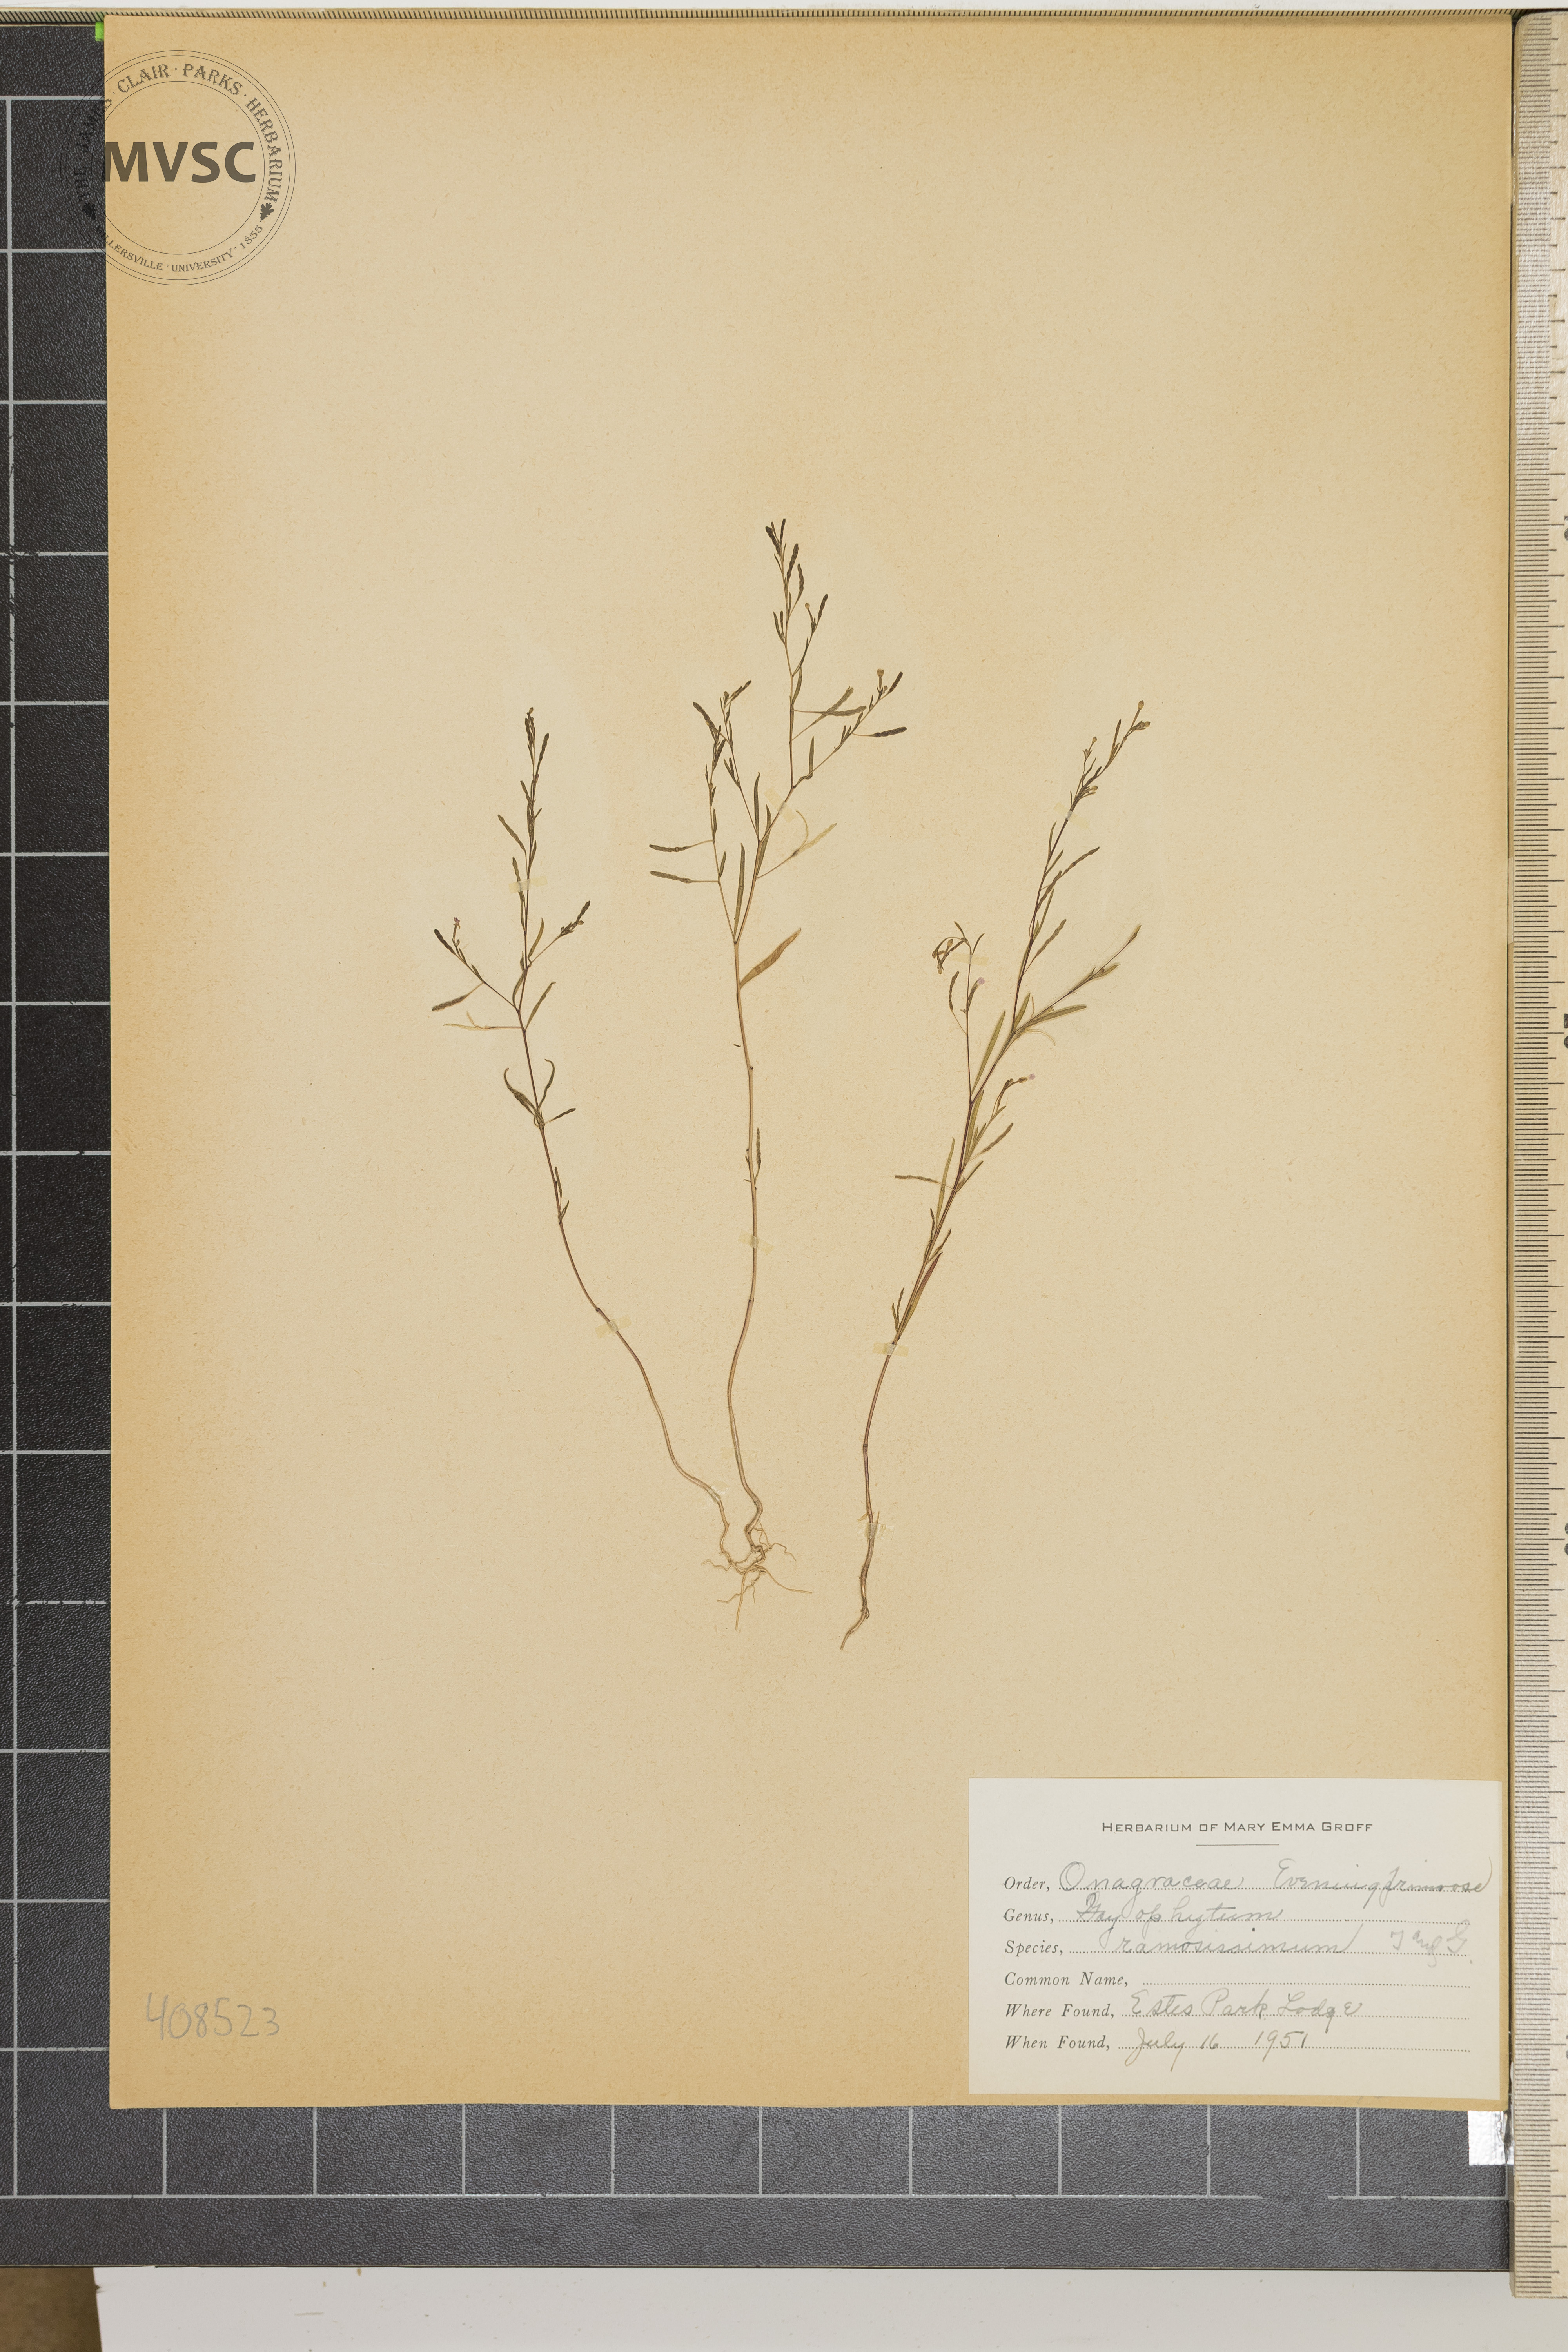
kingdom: Plantae
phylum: Tracheophyta
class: Magnoliopsida
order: Myrtales
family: Onagraceae
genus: Gayophytum
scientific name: Gayophytum ramosissimum
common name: Hairstem groundsmoke
